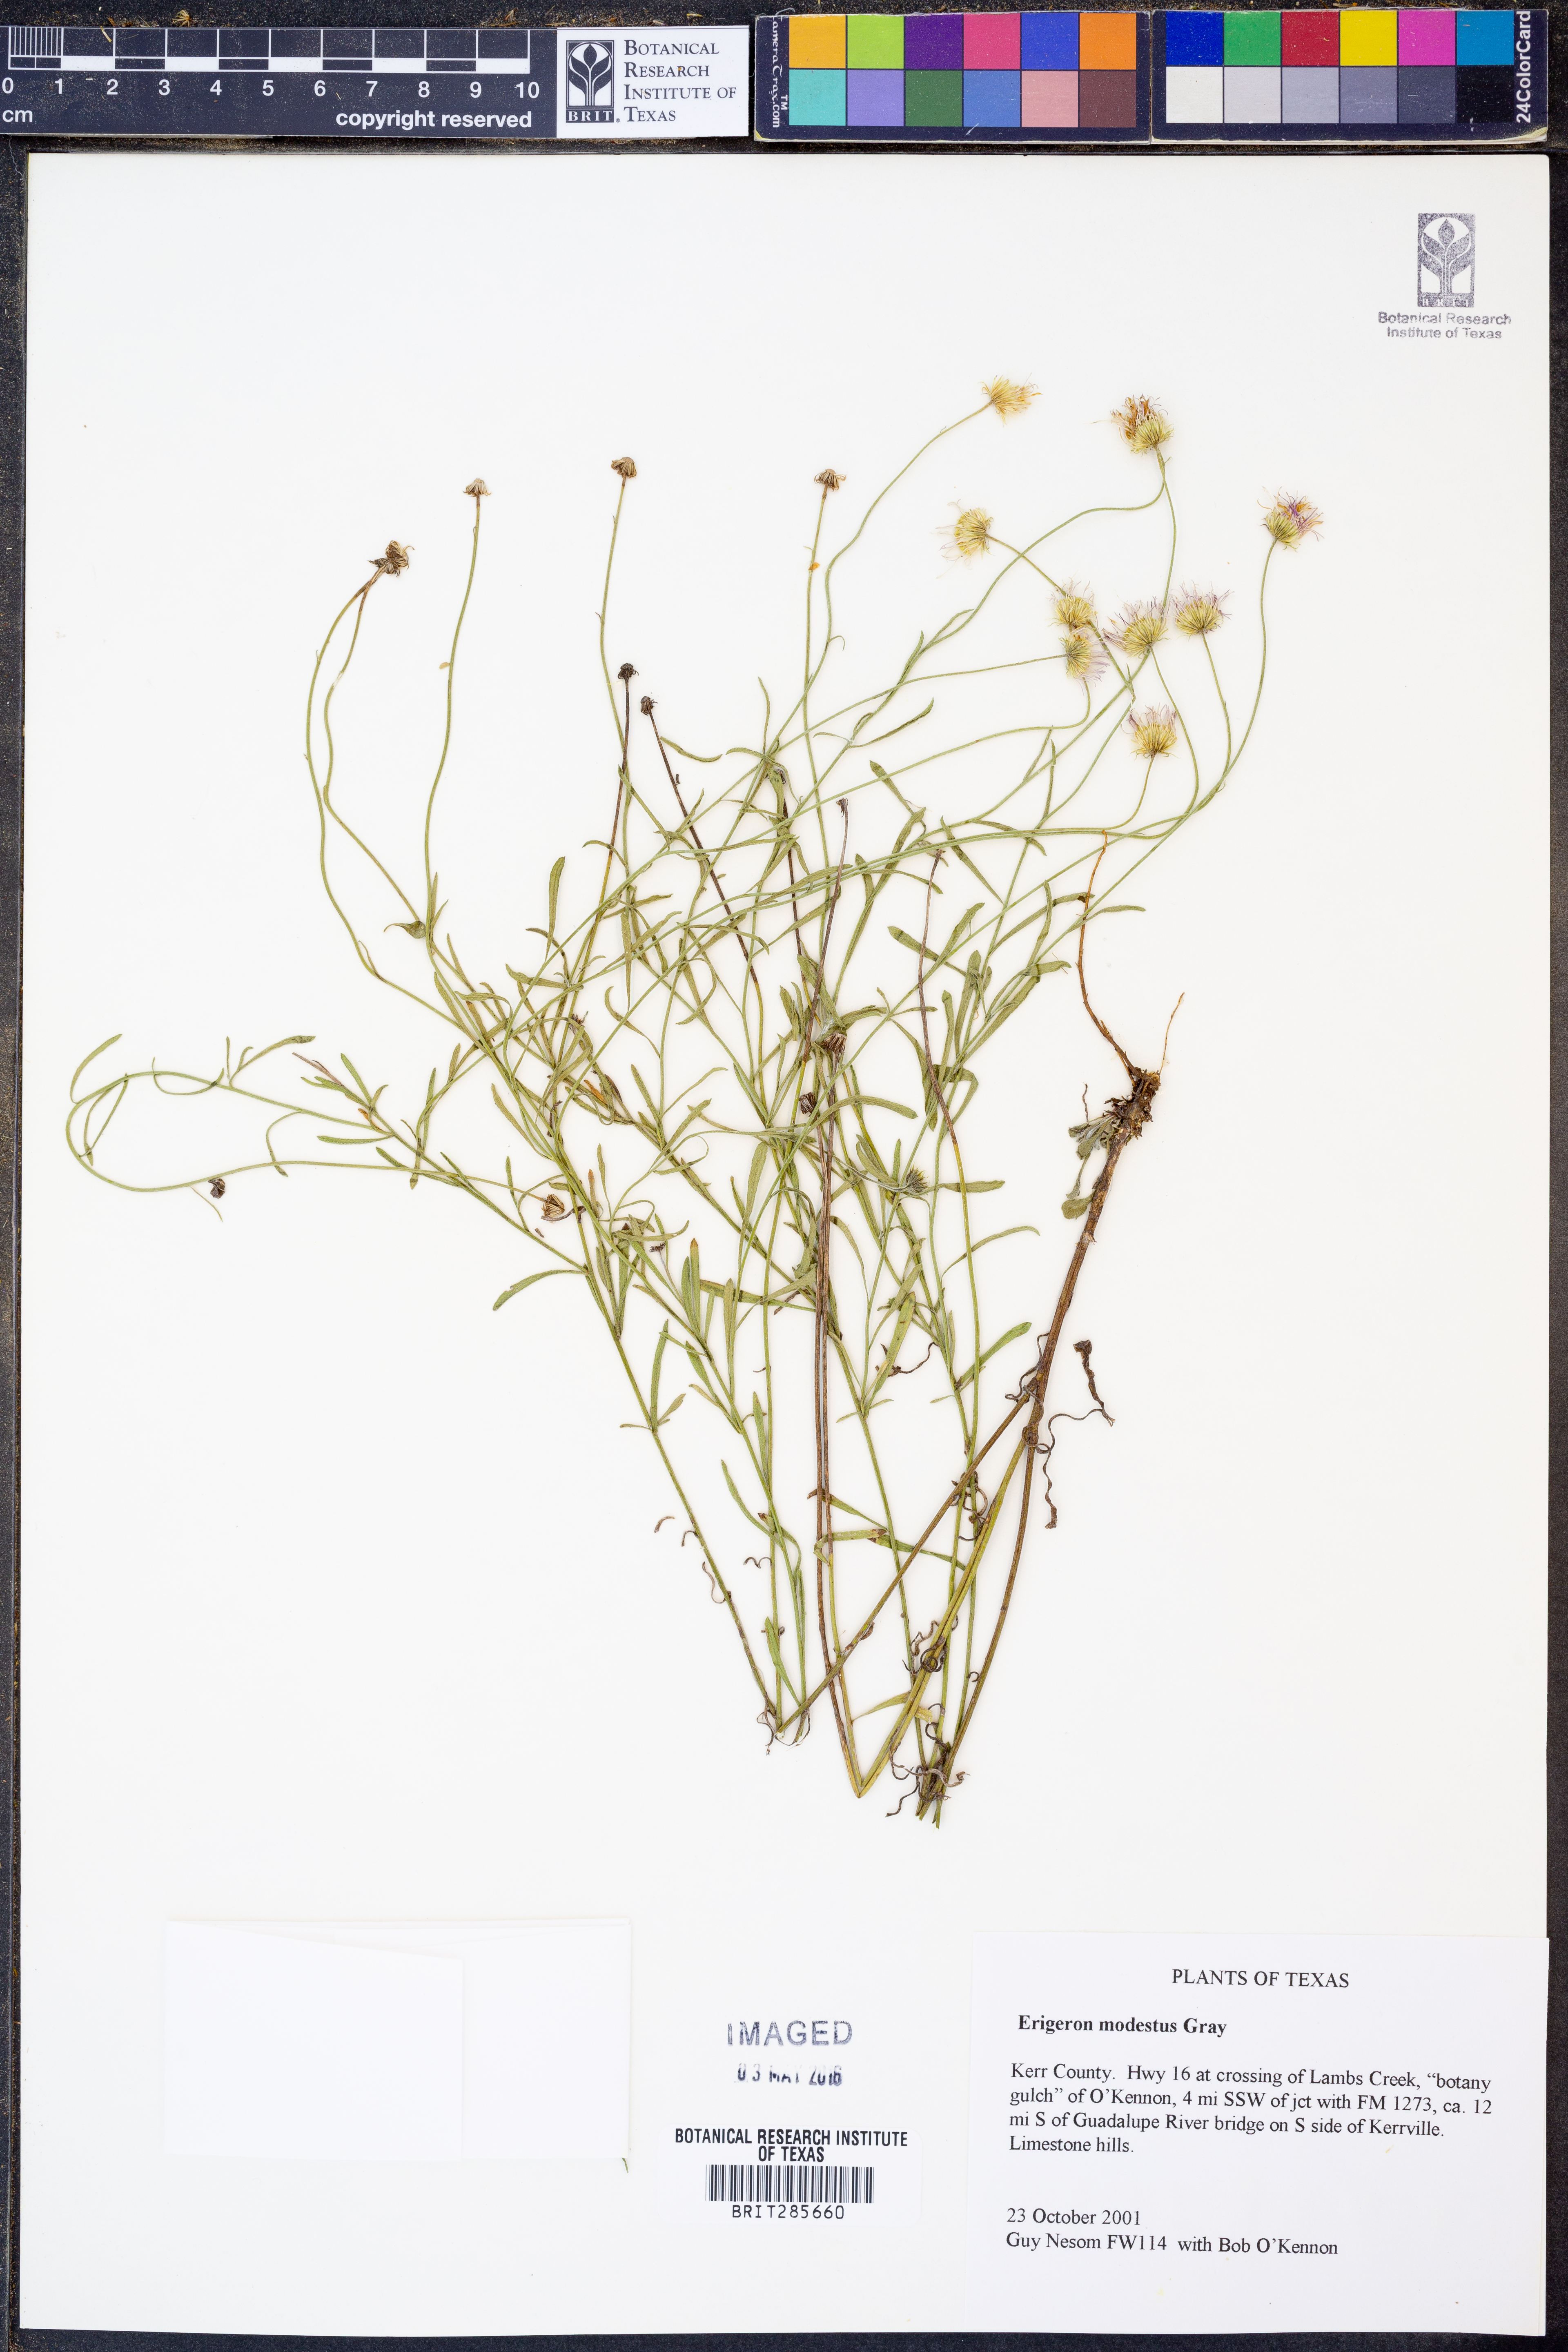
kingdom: Plantae
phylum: Tracheophyta
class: Magnoliopsida
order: Asterales
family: Asteraceae
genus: Erigeron
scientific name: Erigeron modestus
